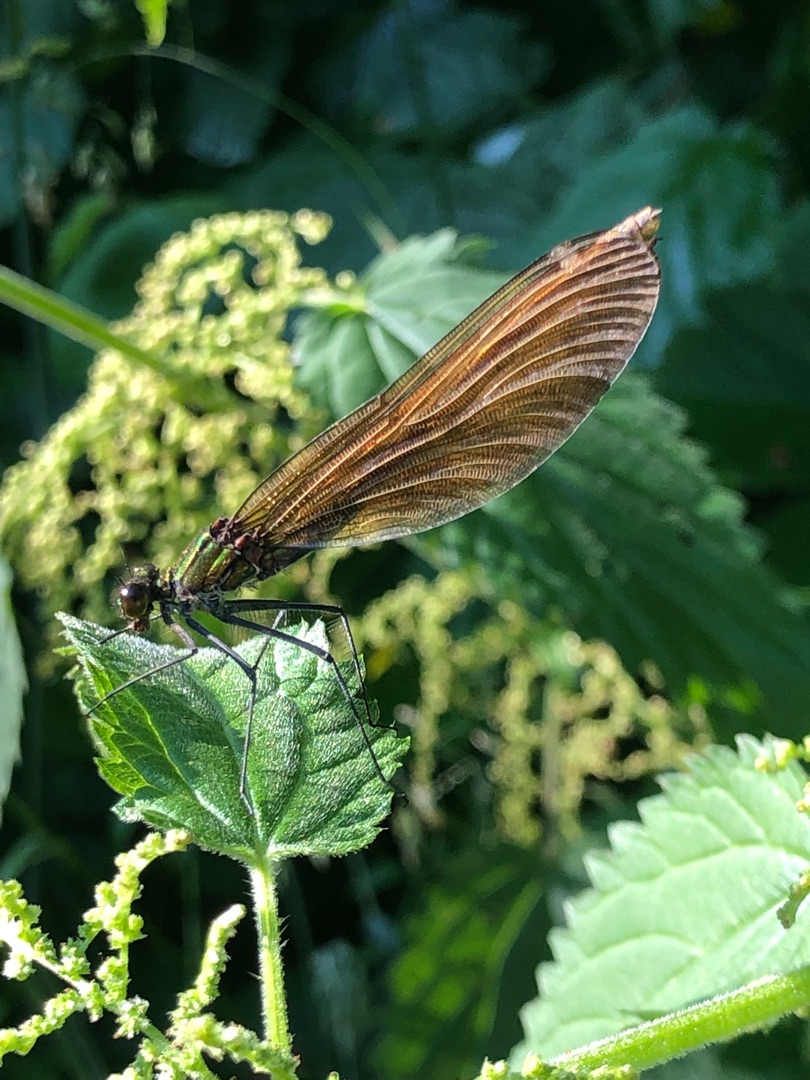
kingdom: Animalia
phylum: Arthropoda
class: Insecta
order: Odonata
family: Calopterygidae
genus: Calopteryx
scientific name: Calopteryx virgo
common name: Blåvinget pragtvandnymfe
